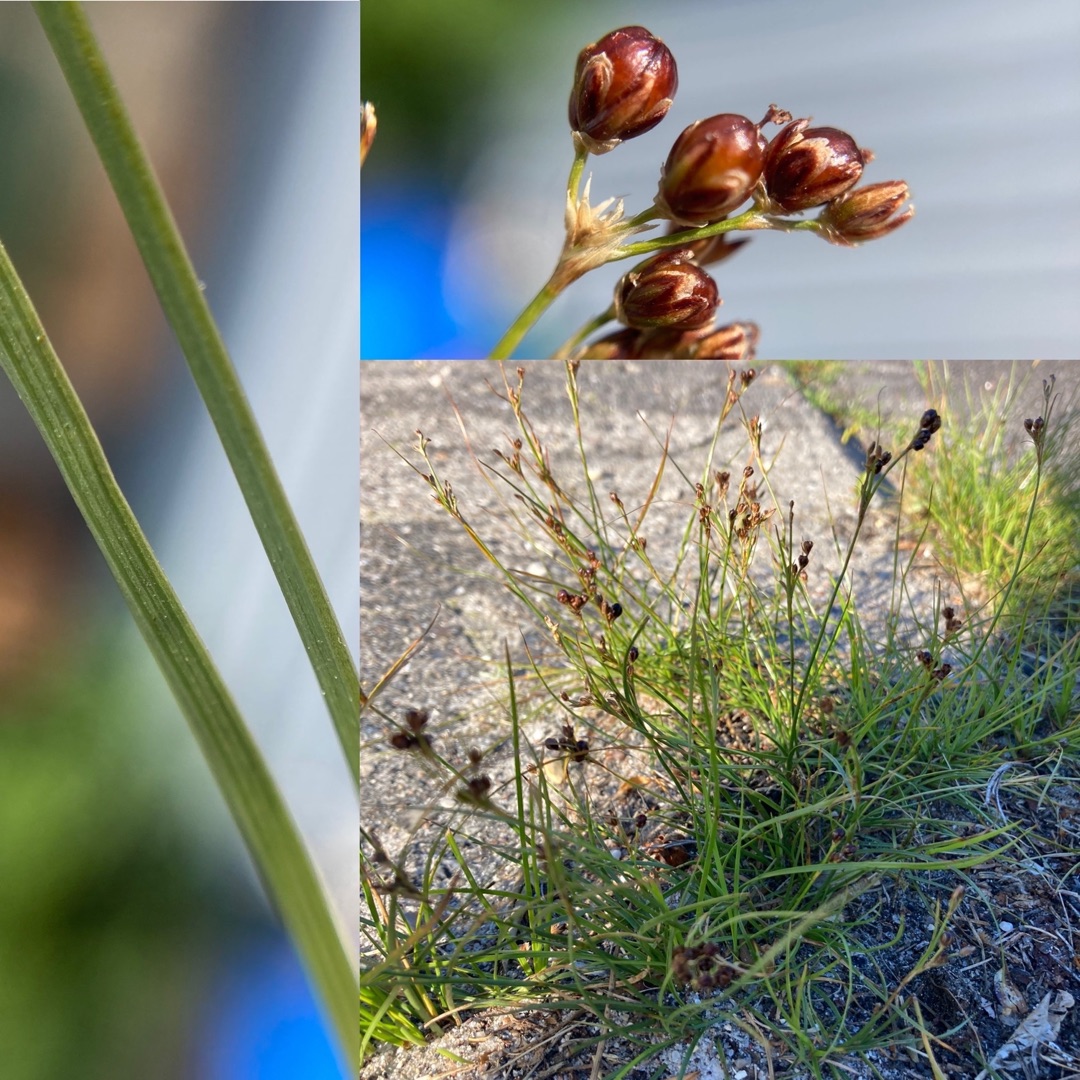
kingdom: Plantae
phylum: Tracheophyta
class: Liliopsida
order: Poales
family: Juncaceae
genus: Juncus
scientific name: Juncus compressus
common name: Fladstrået siv
